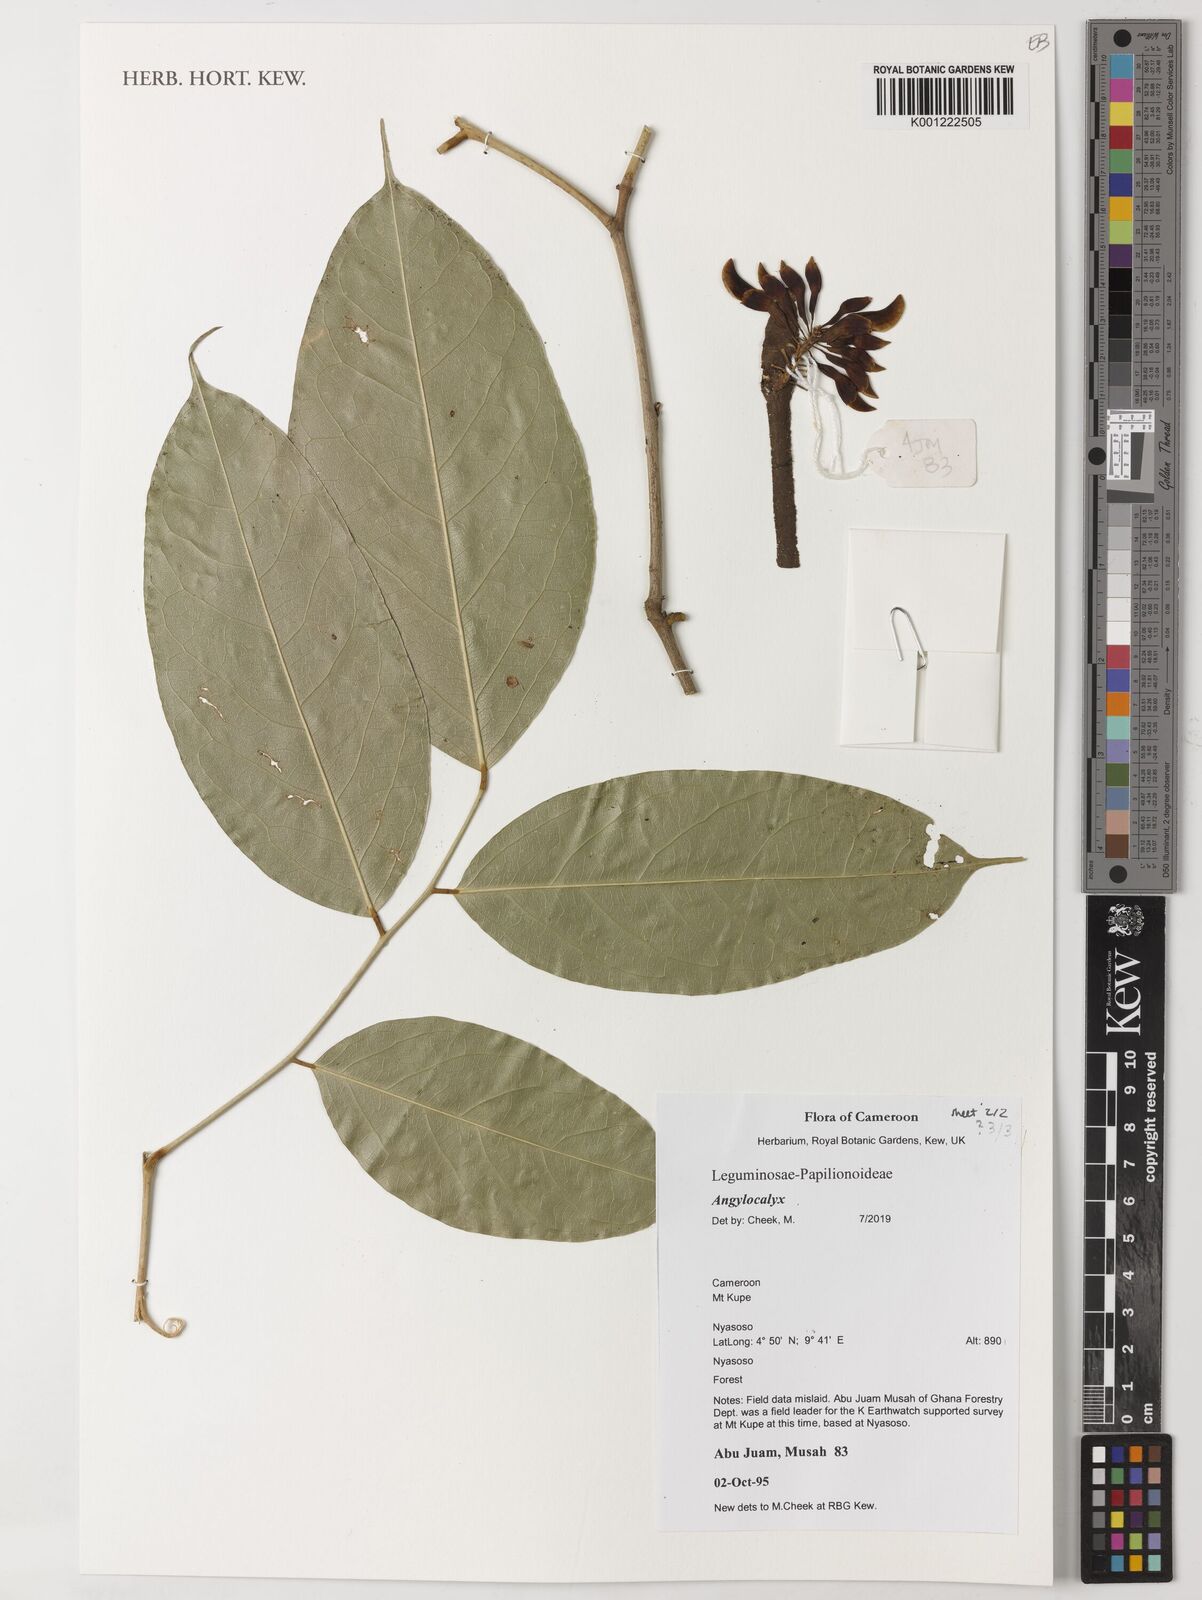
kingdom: Plantae
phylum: Tracheophyta
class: Magnoliopsida
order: Fabales
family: Fabaceae
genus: Angylocalyx
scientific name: Angylocalyx
